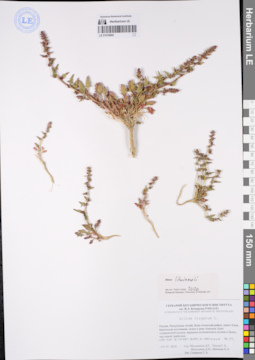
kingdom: Plantae
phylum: Tracheophyta
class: Magnoliopsida
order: Caryophyllales
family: Amaranthaceae
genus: Blitum
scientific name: Blitum litwinowii
